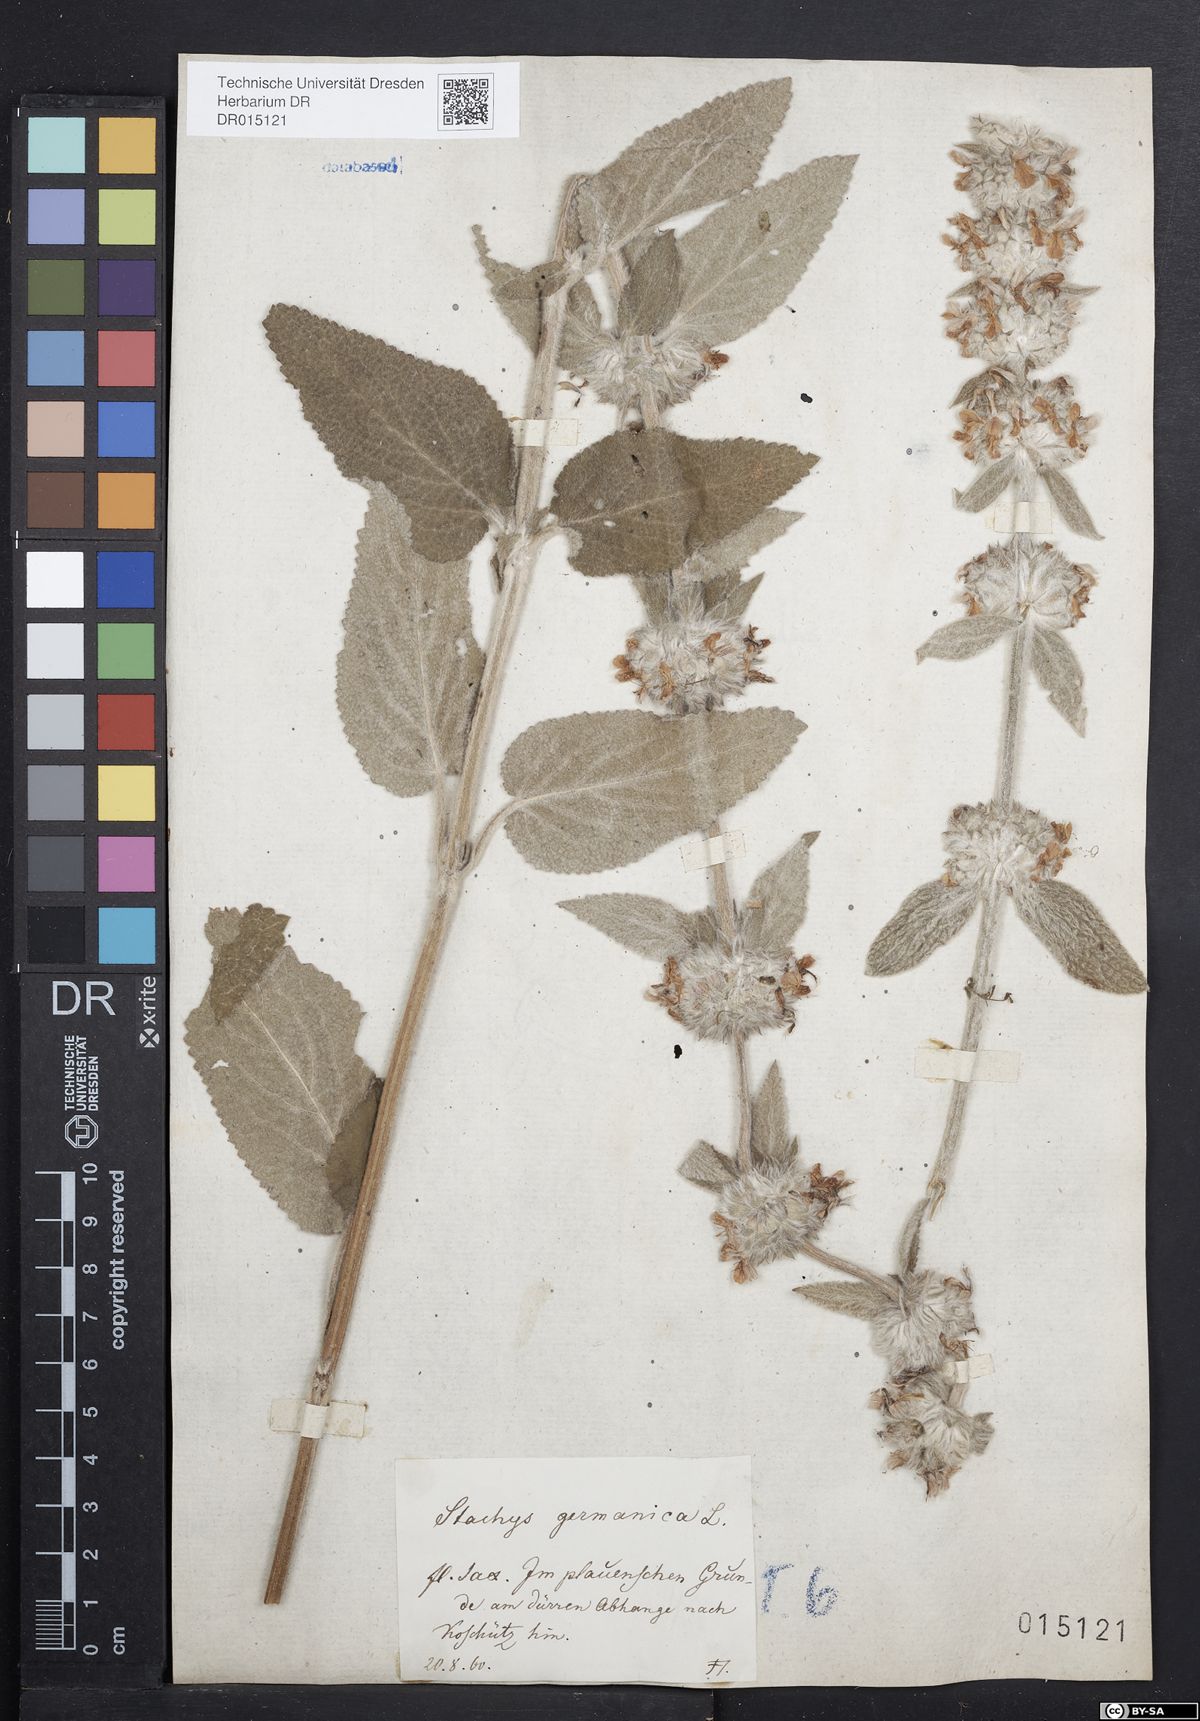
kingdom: Plantae
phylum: Tracheophyta
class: Magnoliopsida
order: Lamiales
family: Lamiaceae
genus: Stachys
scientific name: Stachys germanica
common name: Downy woundwort
